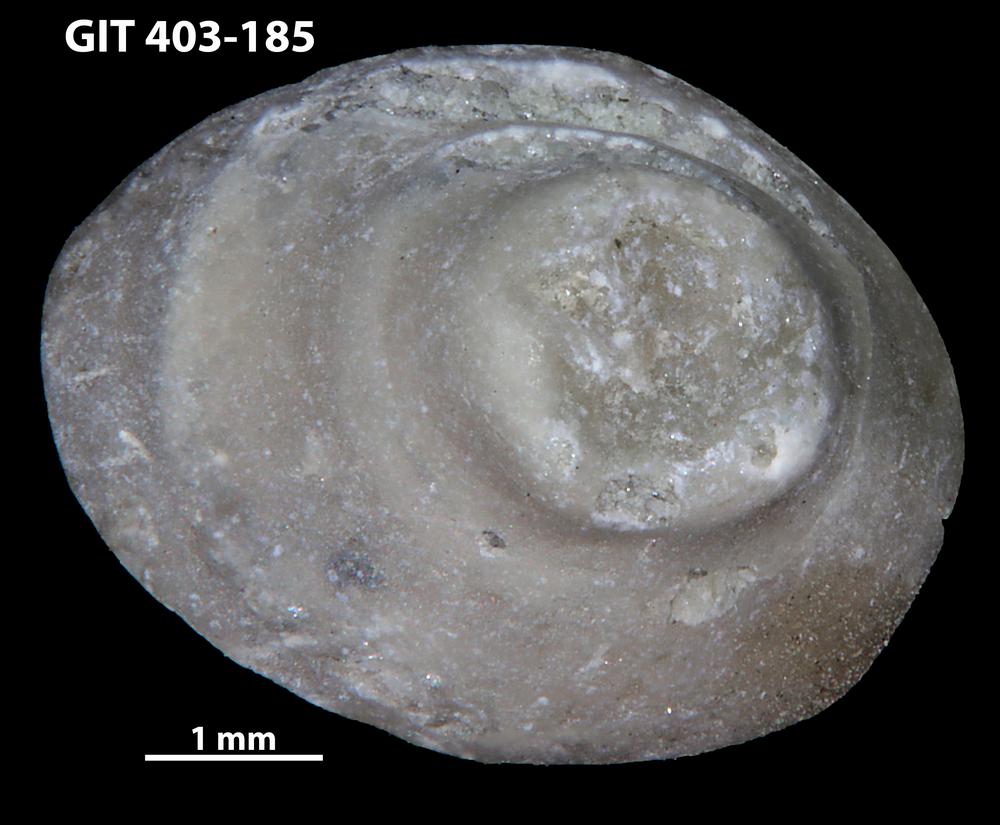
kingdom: Animalia
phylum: Mollusca
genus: Anticalyptraea
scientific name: Anticalyptraea westergaardi
